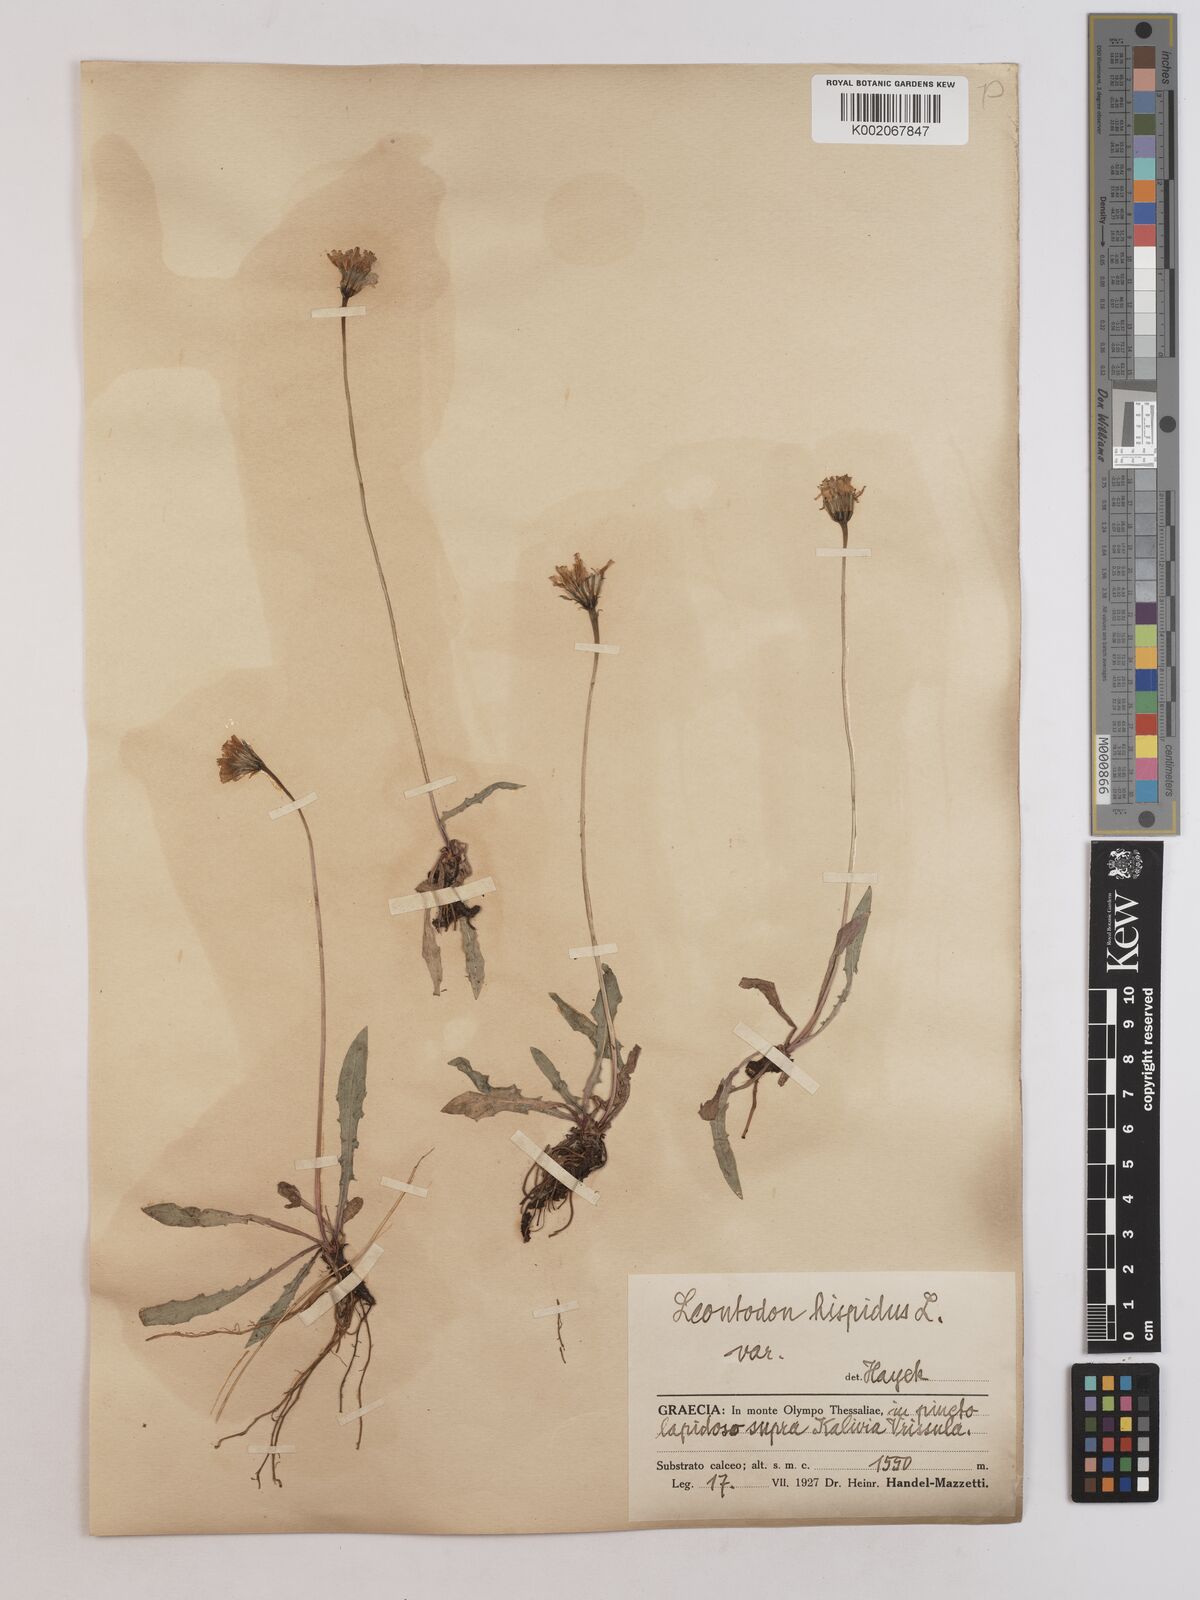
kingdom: Plantae
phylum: Tracheophyta
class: Magnoliopsida
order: Asterales
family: Asteraceae
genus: Leontodon
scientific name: Leontodon hispidus
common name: Rough hawkbit
